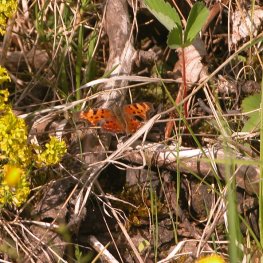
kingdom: Animalia
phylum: Arthropoda
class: Insecta
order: Lepidoptera
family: Nymphalidae
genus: Polygonia
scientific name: Polygonia comma
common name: Eastern Comma
